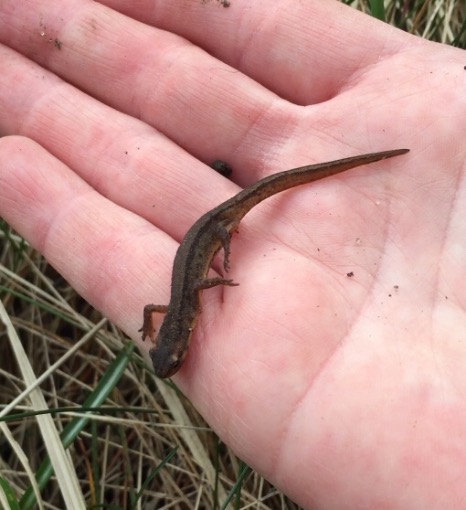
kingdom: Animalia
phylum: Chordata
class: Amphibia
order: Caudata
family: Salamandridae
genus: Lissotriton
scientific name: Lissotriton vulgaris
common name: Lille vandsalamander
